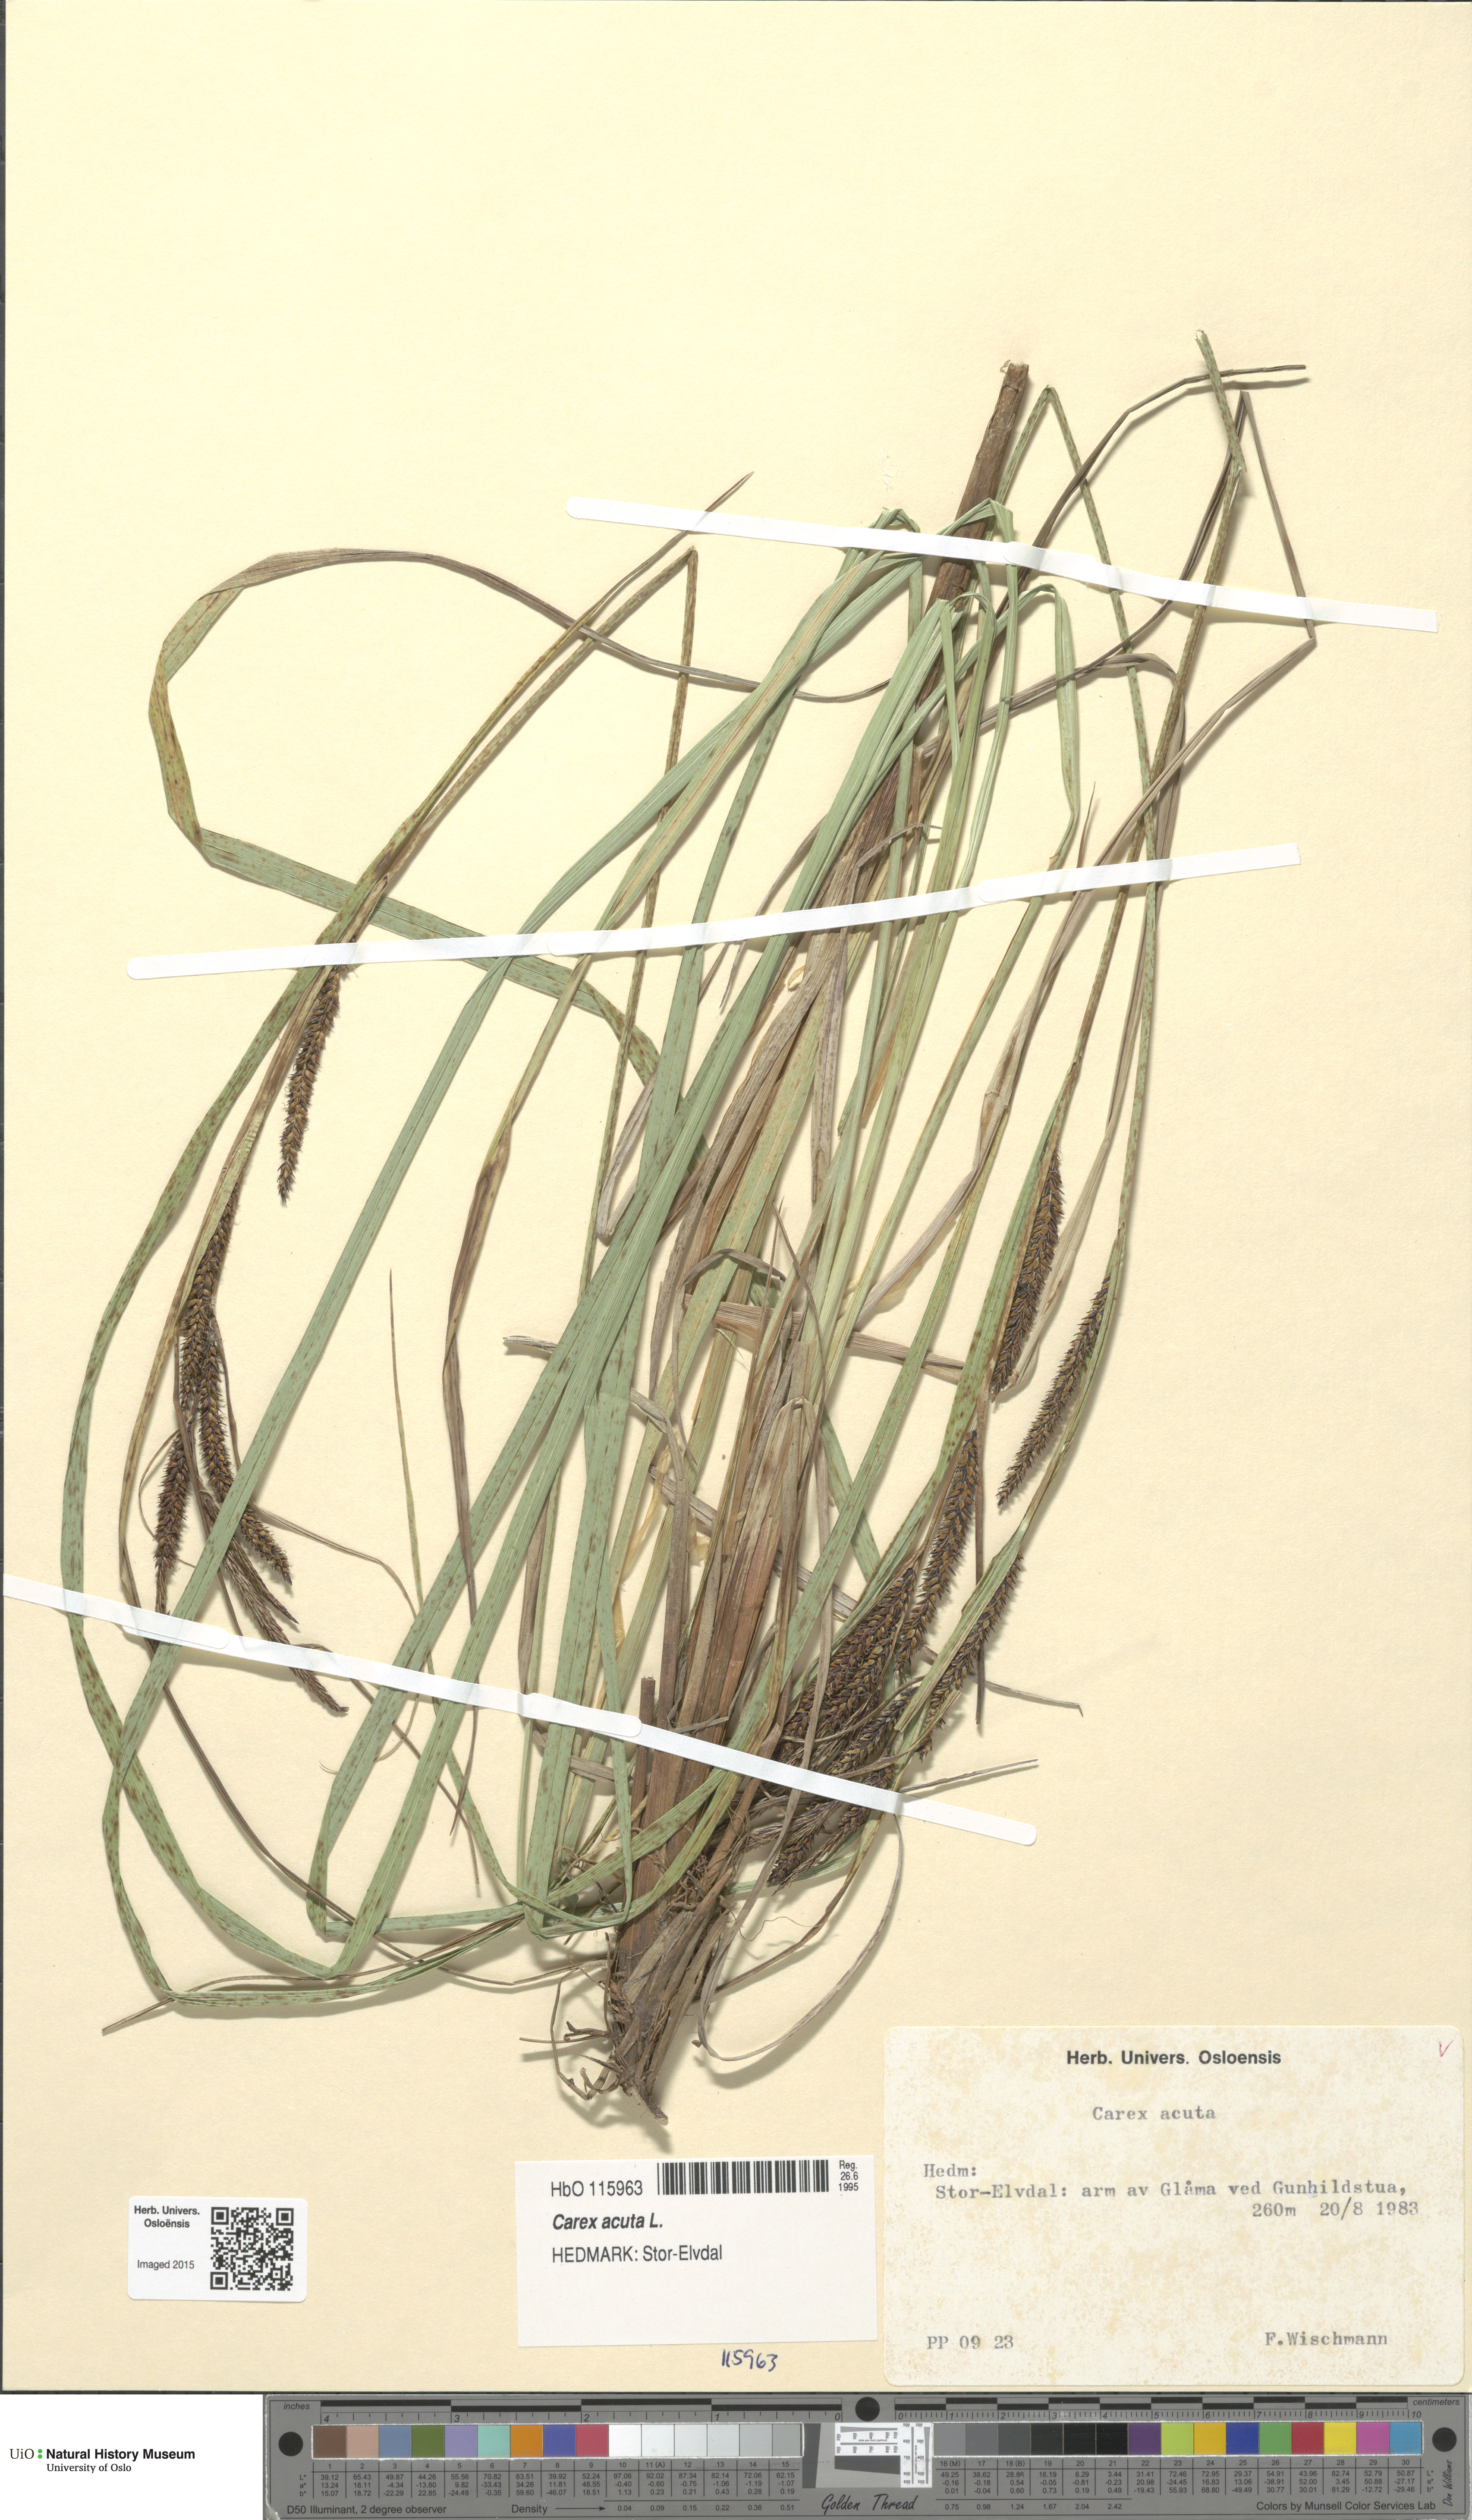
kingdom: Plantae
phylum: Tracheophyta
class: Liliopsida
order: Poales
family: Cyperaceae
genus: Carex
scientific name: Carex acuta
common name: Slender tufted-sedge
